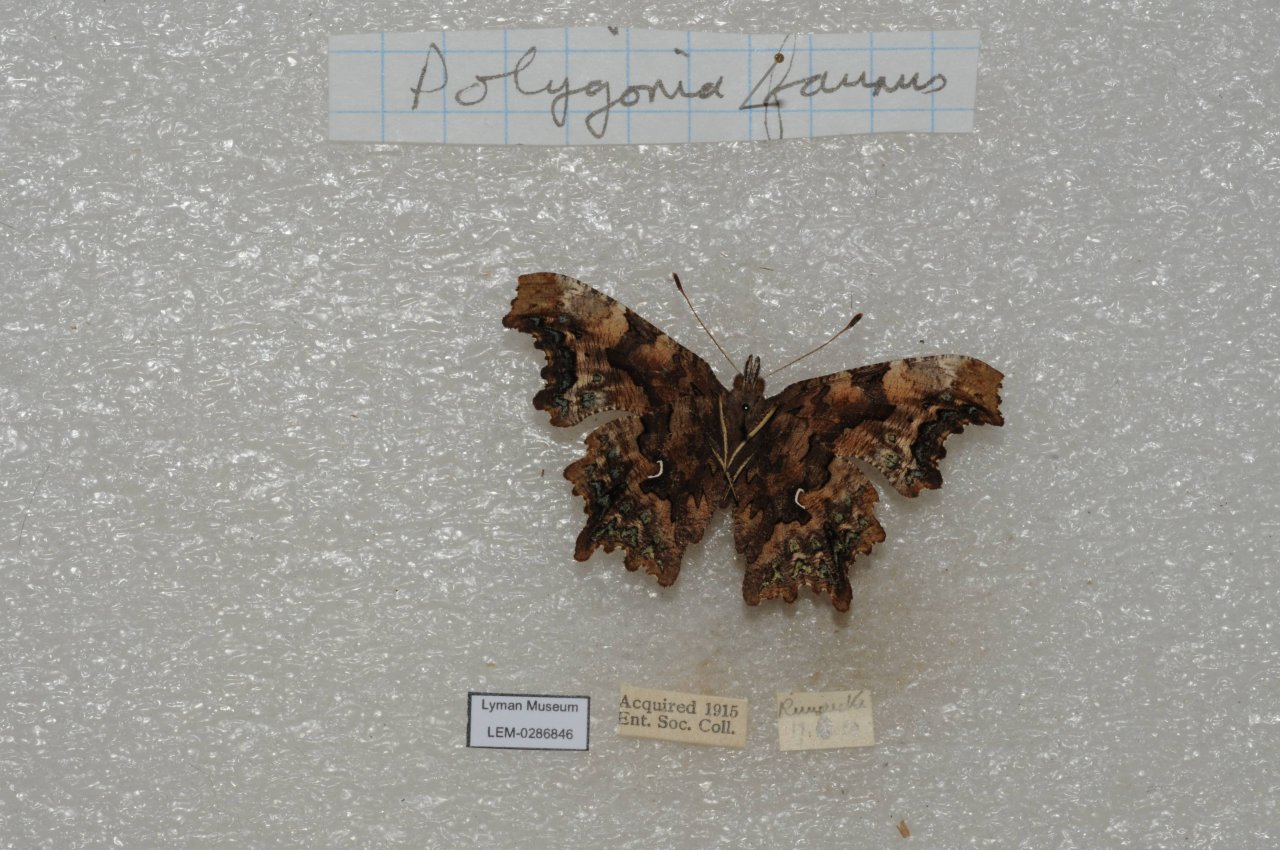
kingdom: Animalia
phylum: Arthropoda
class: Insecta
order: Lepidoptera
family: Nymphalidae
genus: Polygonia
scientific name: Polygonia faunus
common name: Green Comma
